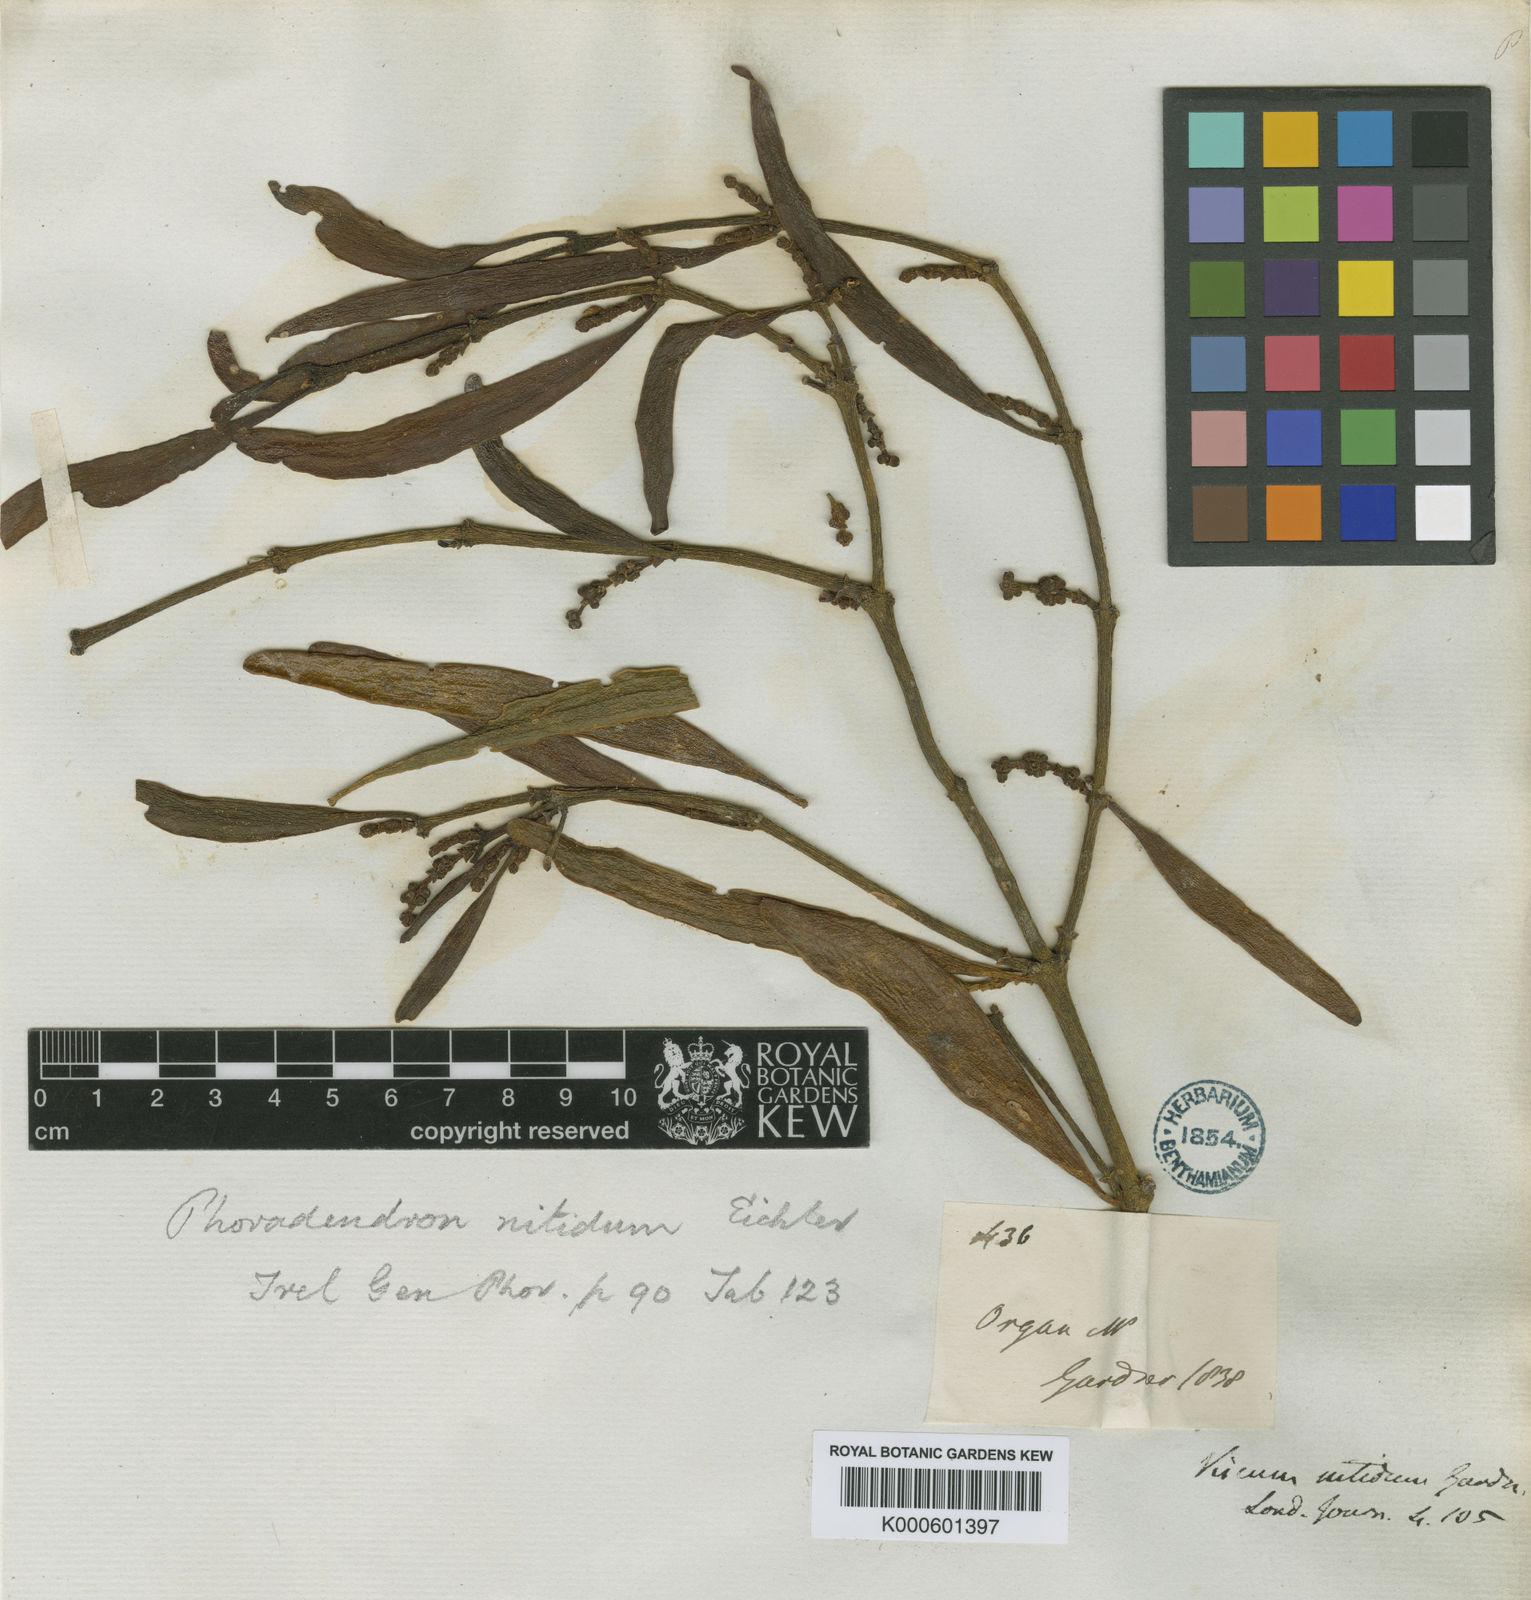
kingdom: Plantae
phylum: Tracheophyta
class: Magnoliopsida
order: Santalales
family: Viscaceae
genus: Phoradendron
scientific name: Phoradendron nitidum
